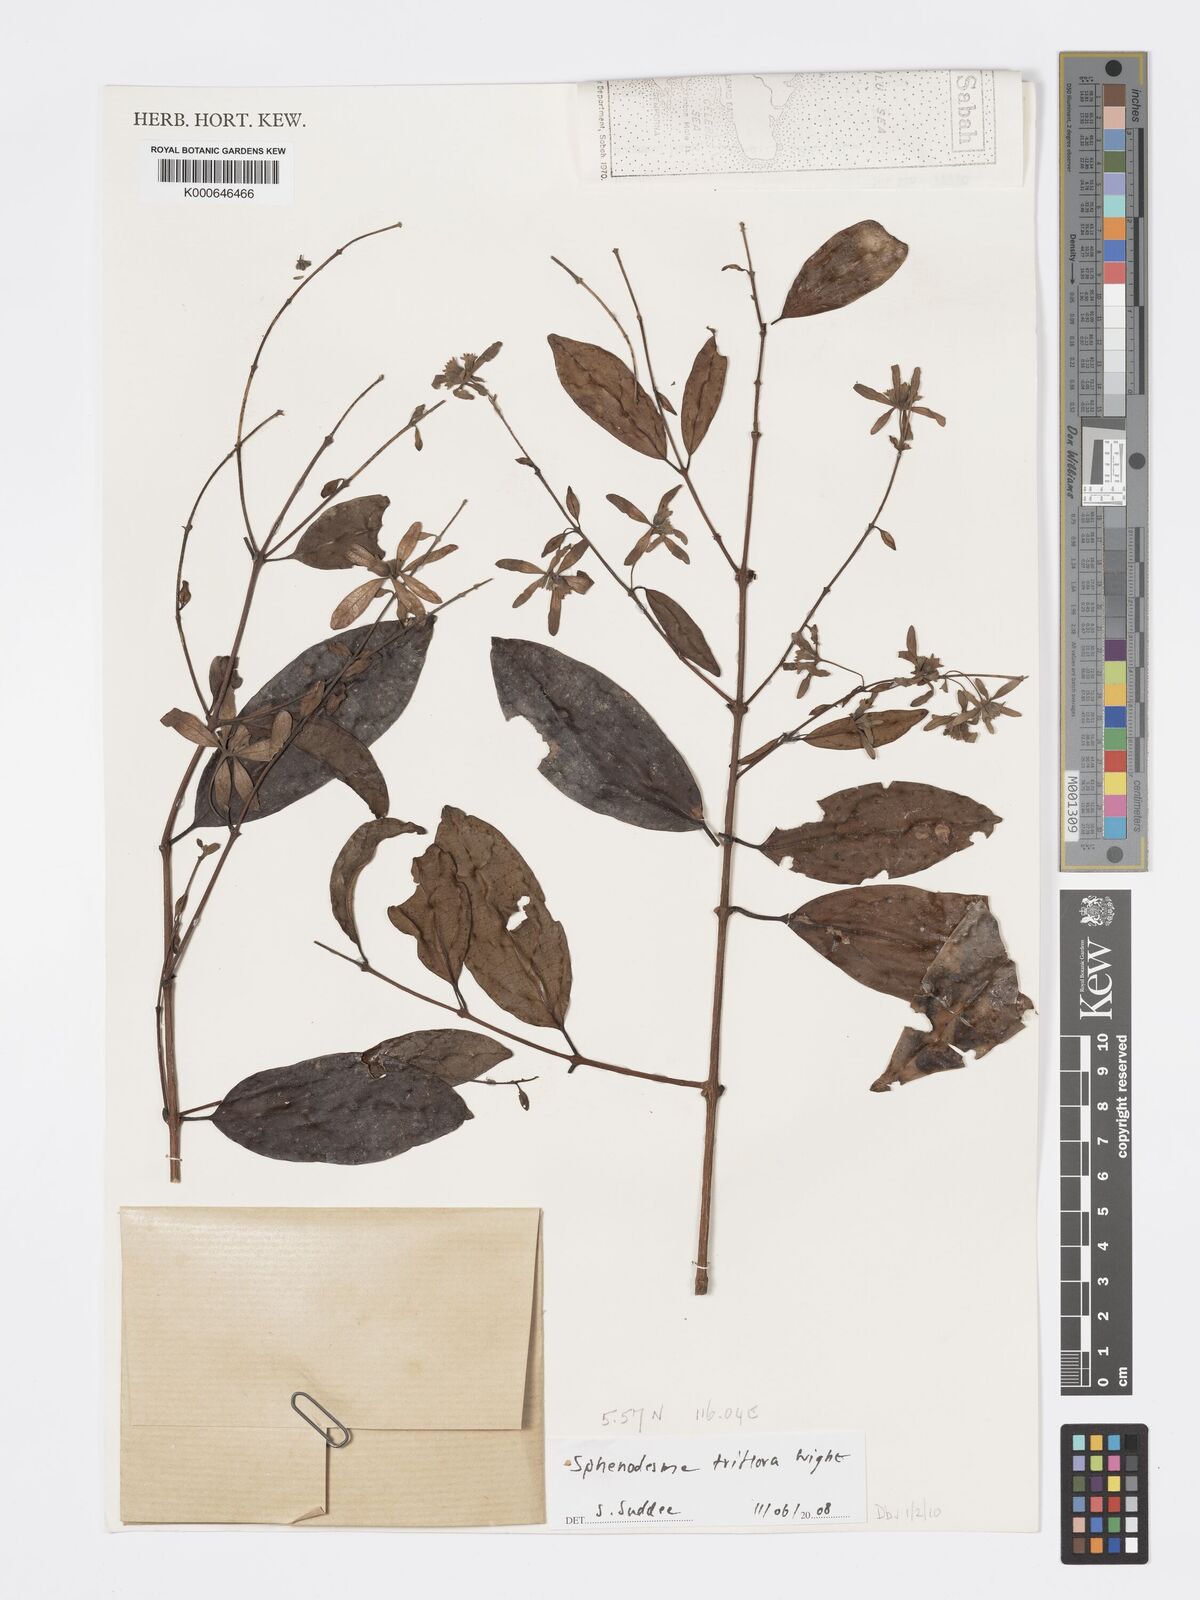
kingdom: Plantae
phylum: Tracheophyta
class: Magnoliopsida
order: Lamiales
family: Lamiaceae
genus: Sphenodesme
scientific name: Sphenodesme triflora
